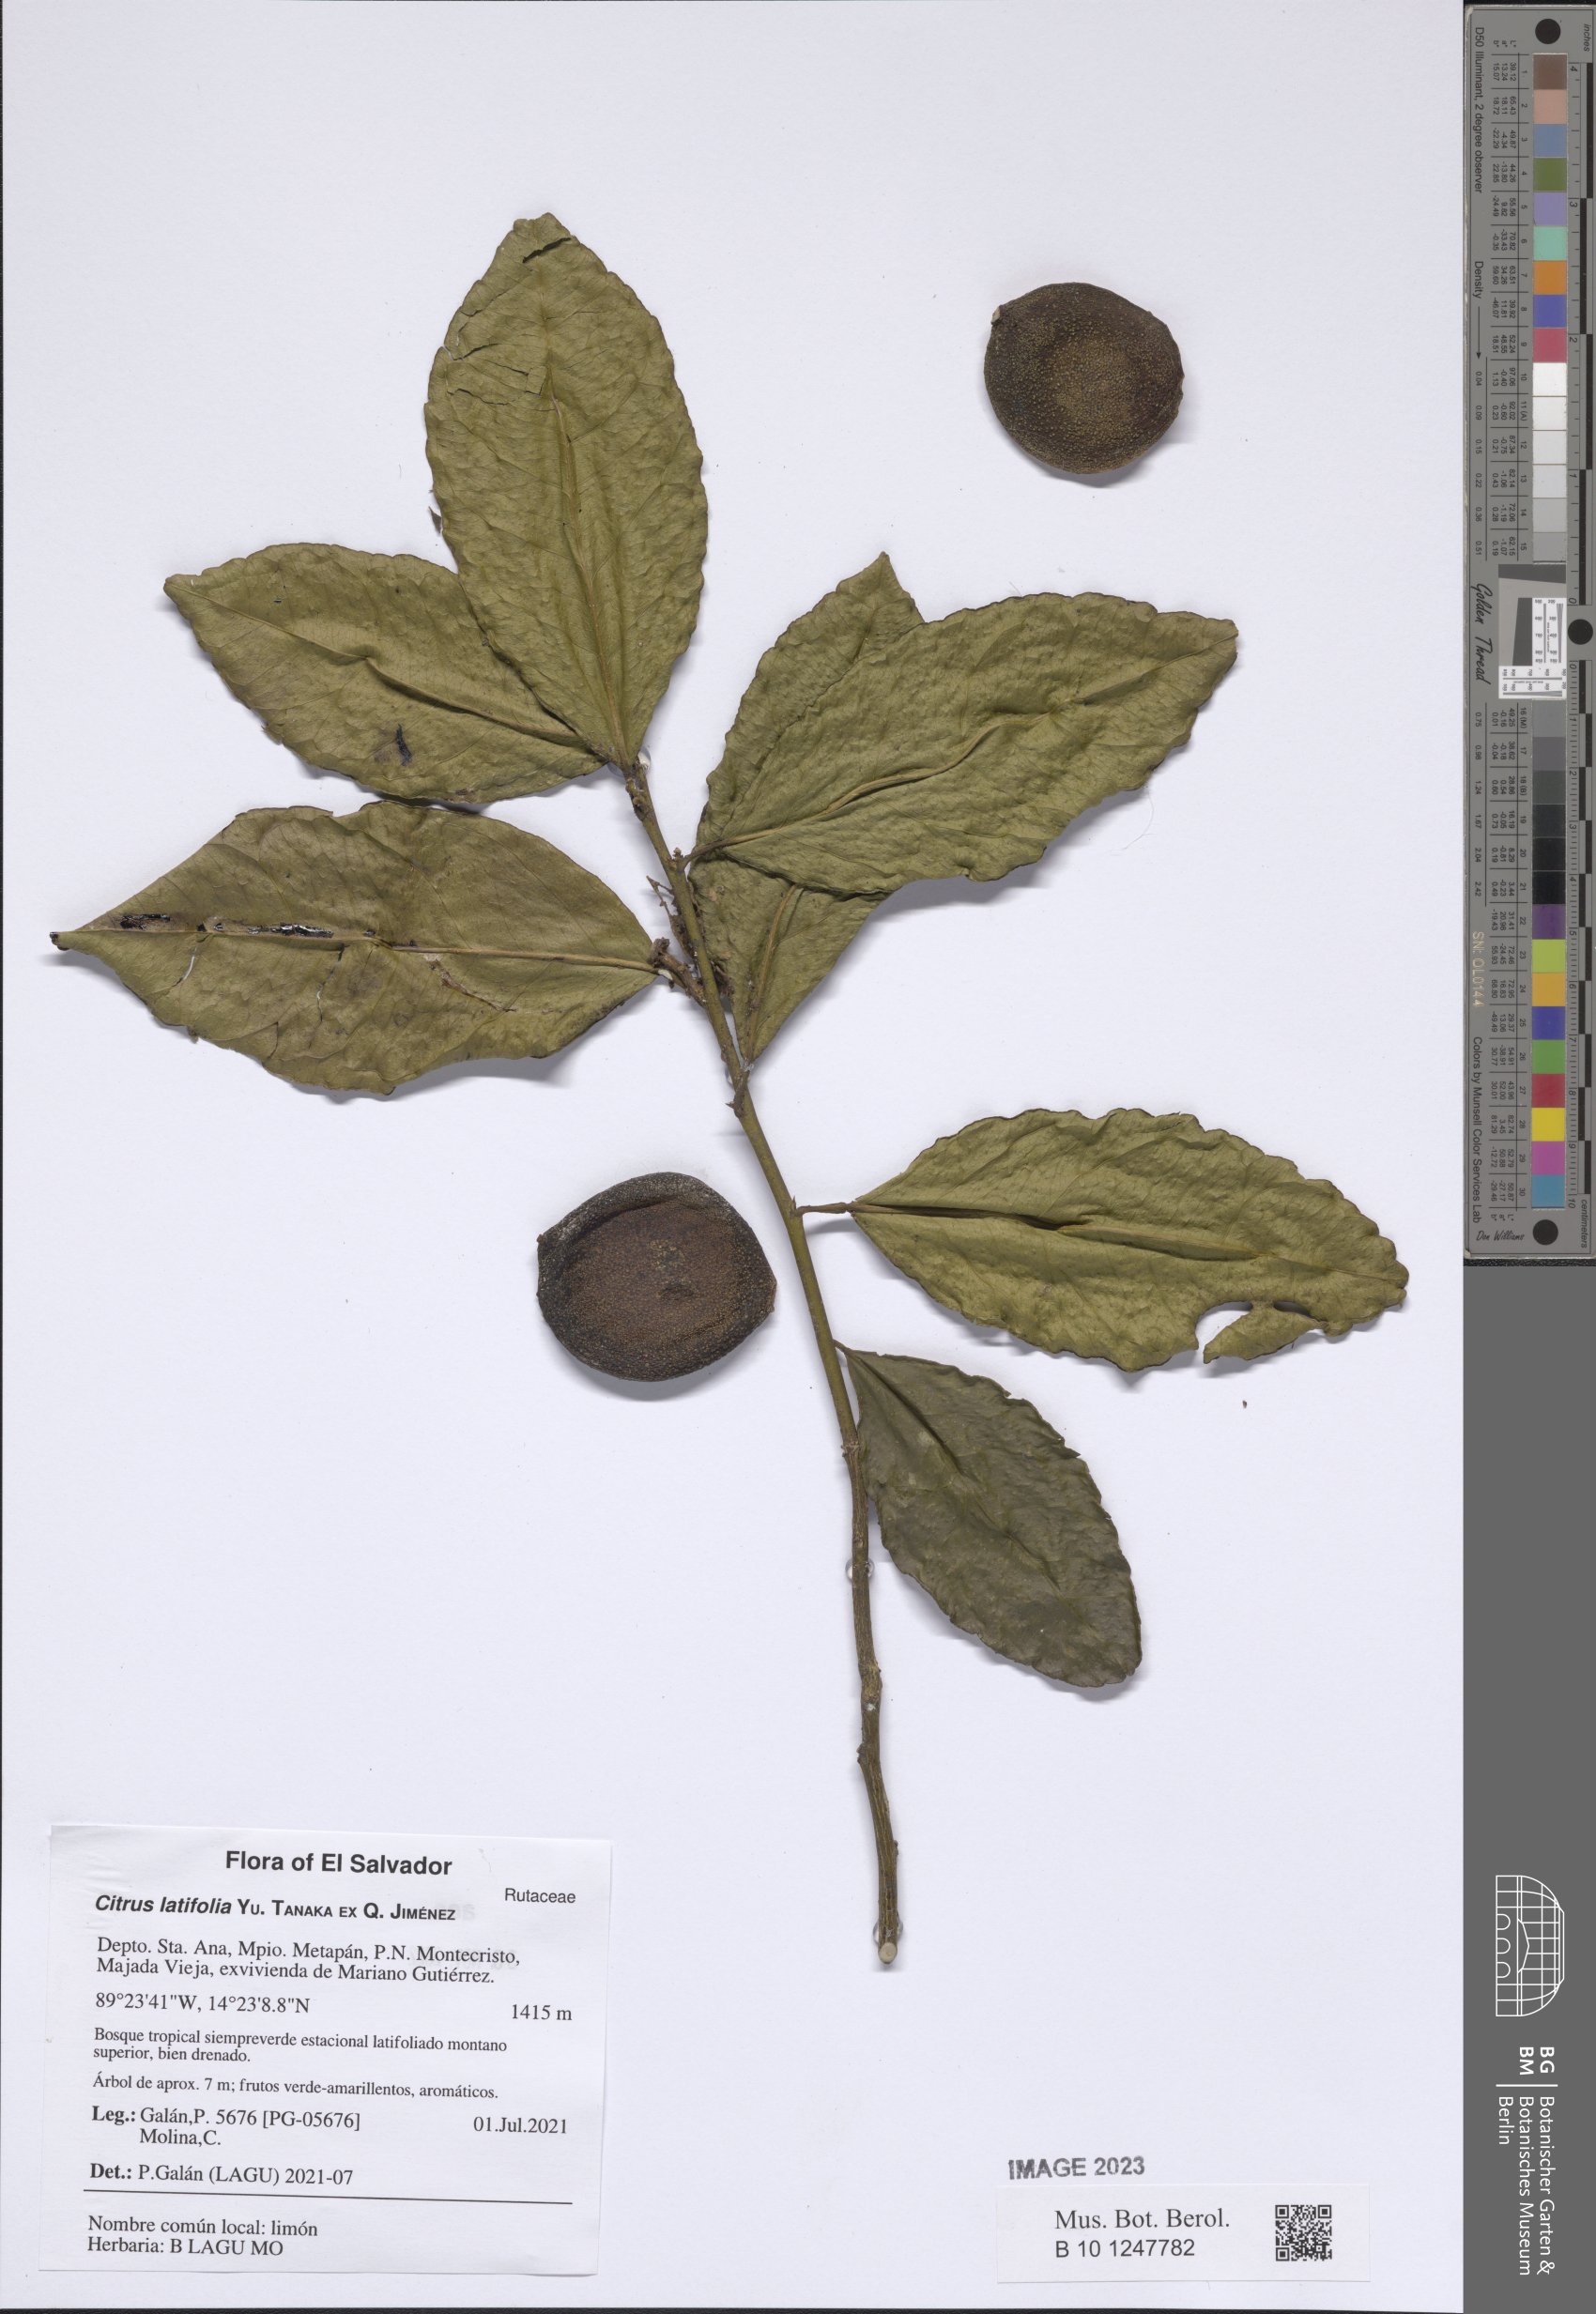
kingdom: Plantae
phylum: Tracheophyta
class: Magnoliopsida
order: Sapindales
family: Rutaceae
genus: Citrus
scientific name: Citrus latifolia
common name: Bearss lime
